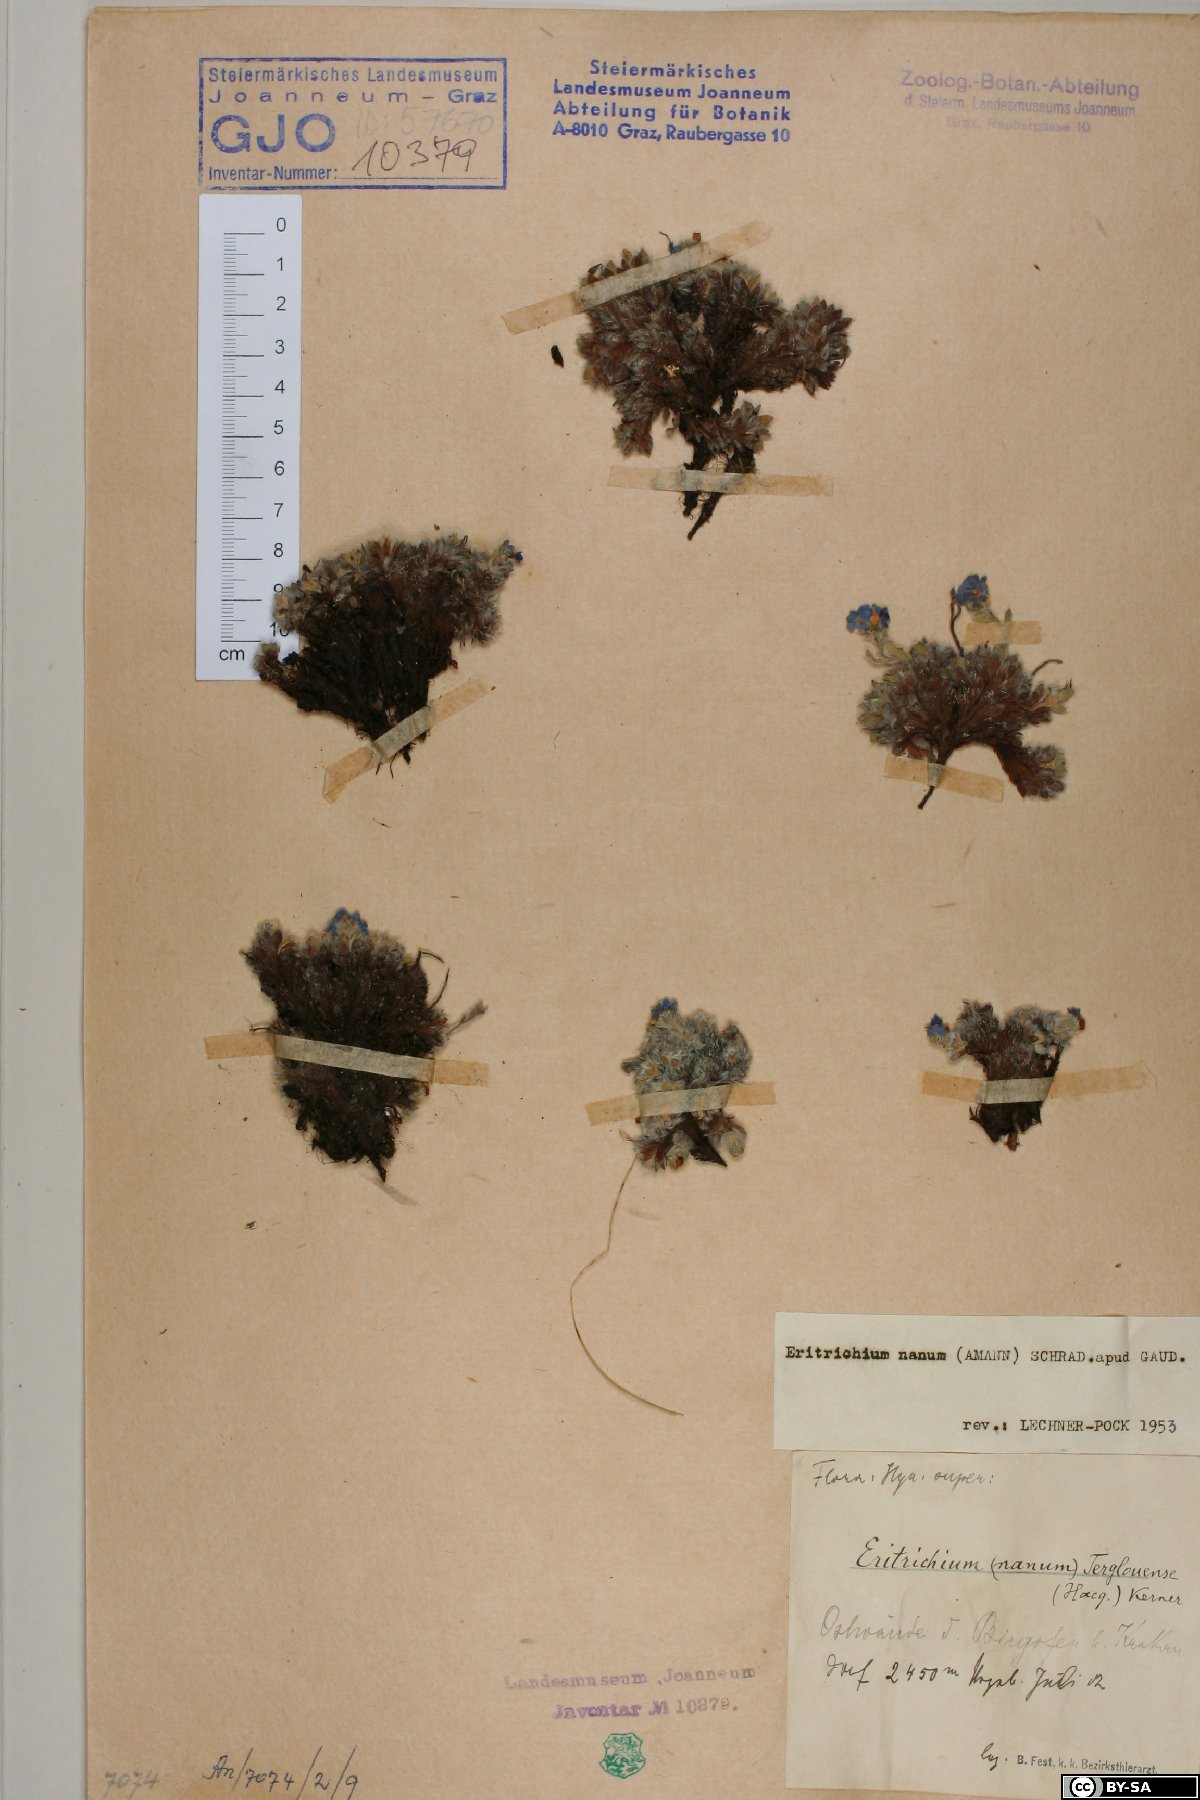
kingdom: Plantae
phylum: Tracheophyta
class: Magnoliopsida
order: Boraginales
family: Boraginaceae
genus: Eritrichium
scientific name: Eritrichium nanum
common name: King-of-the-alps
